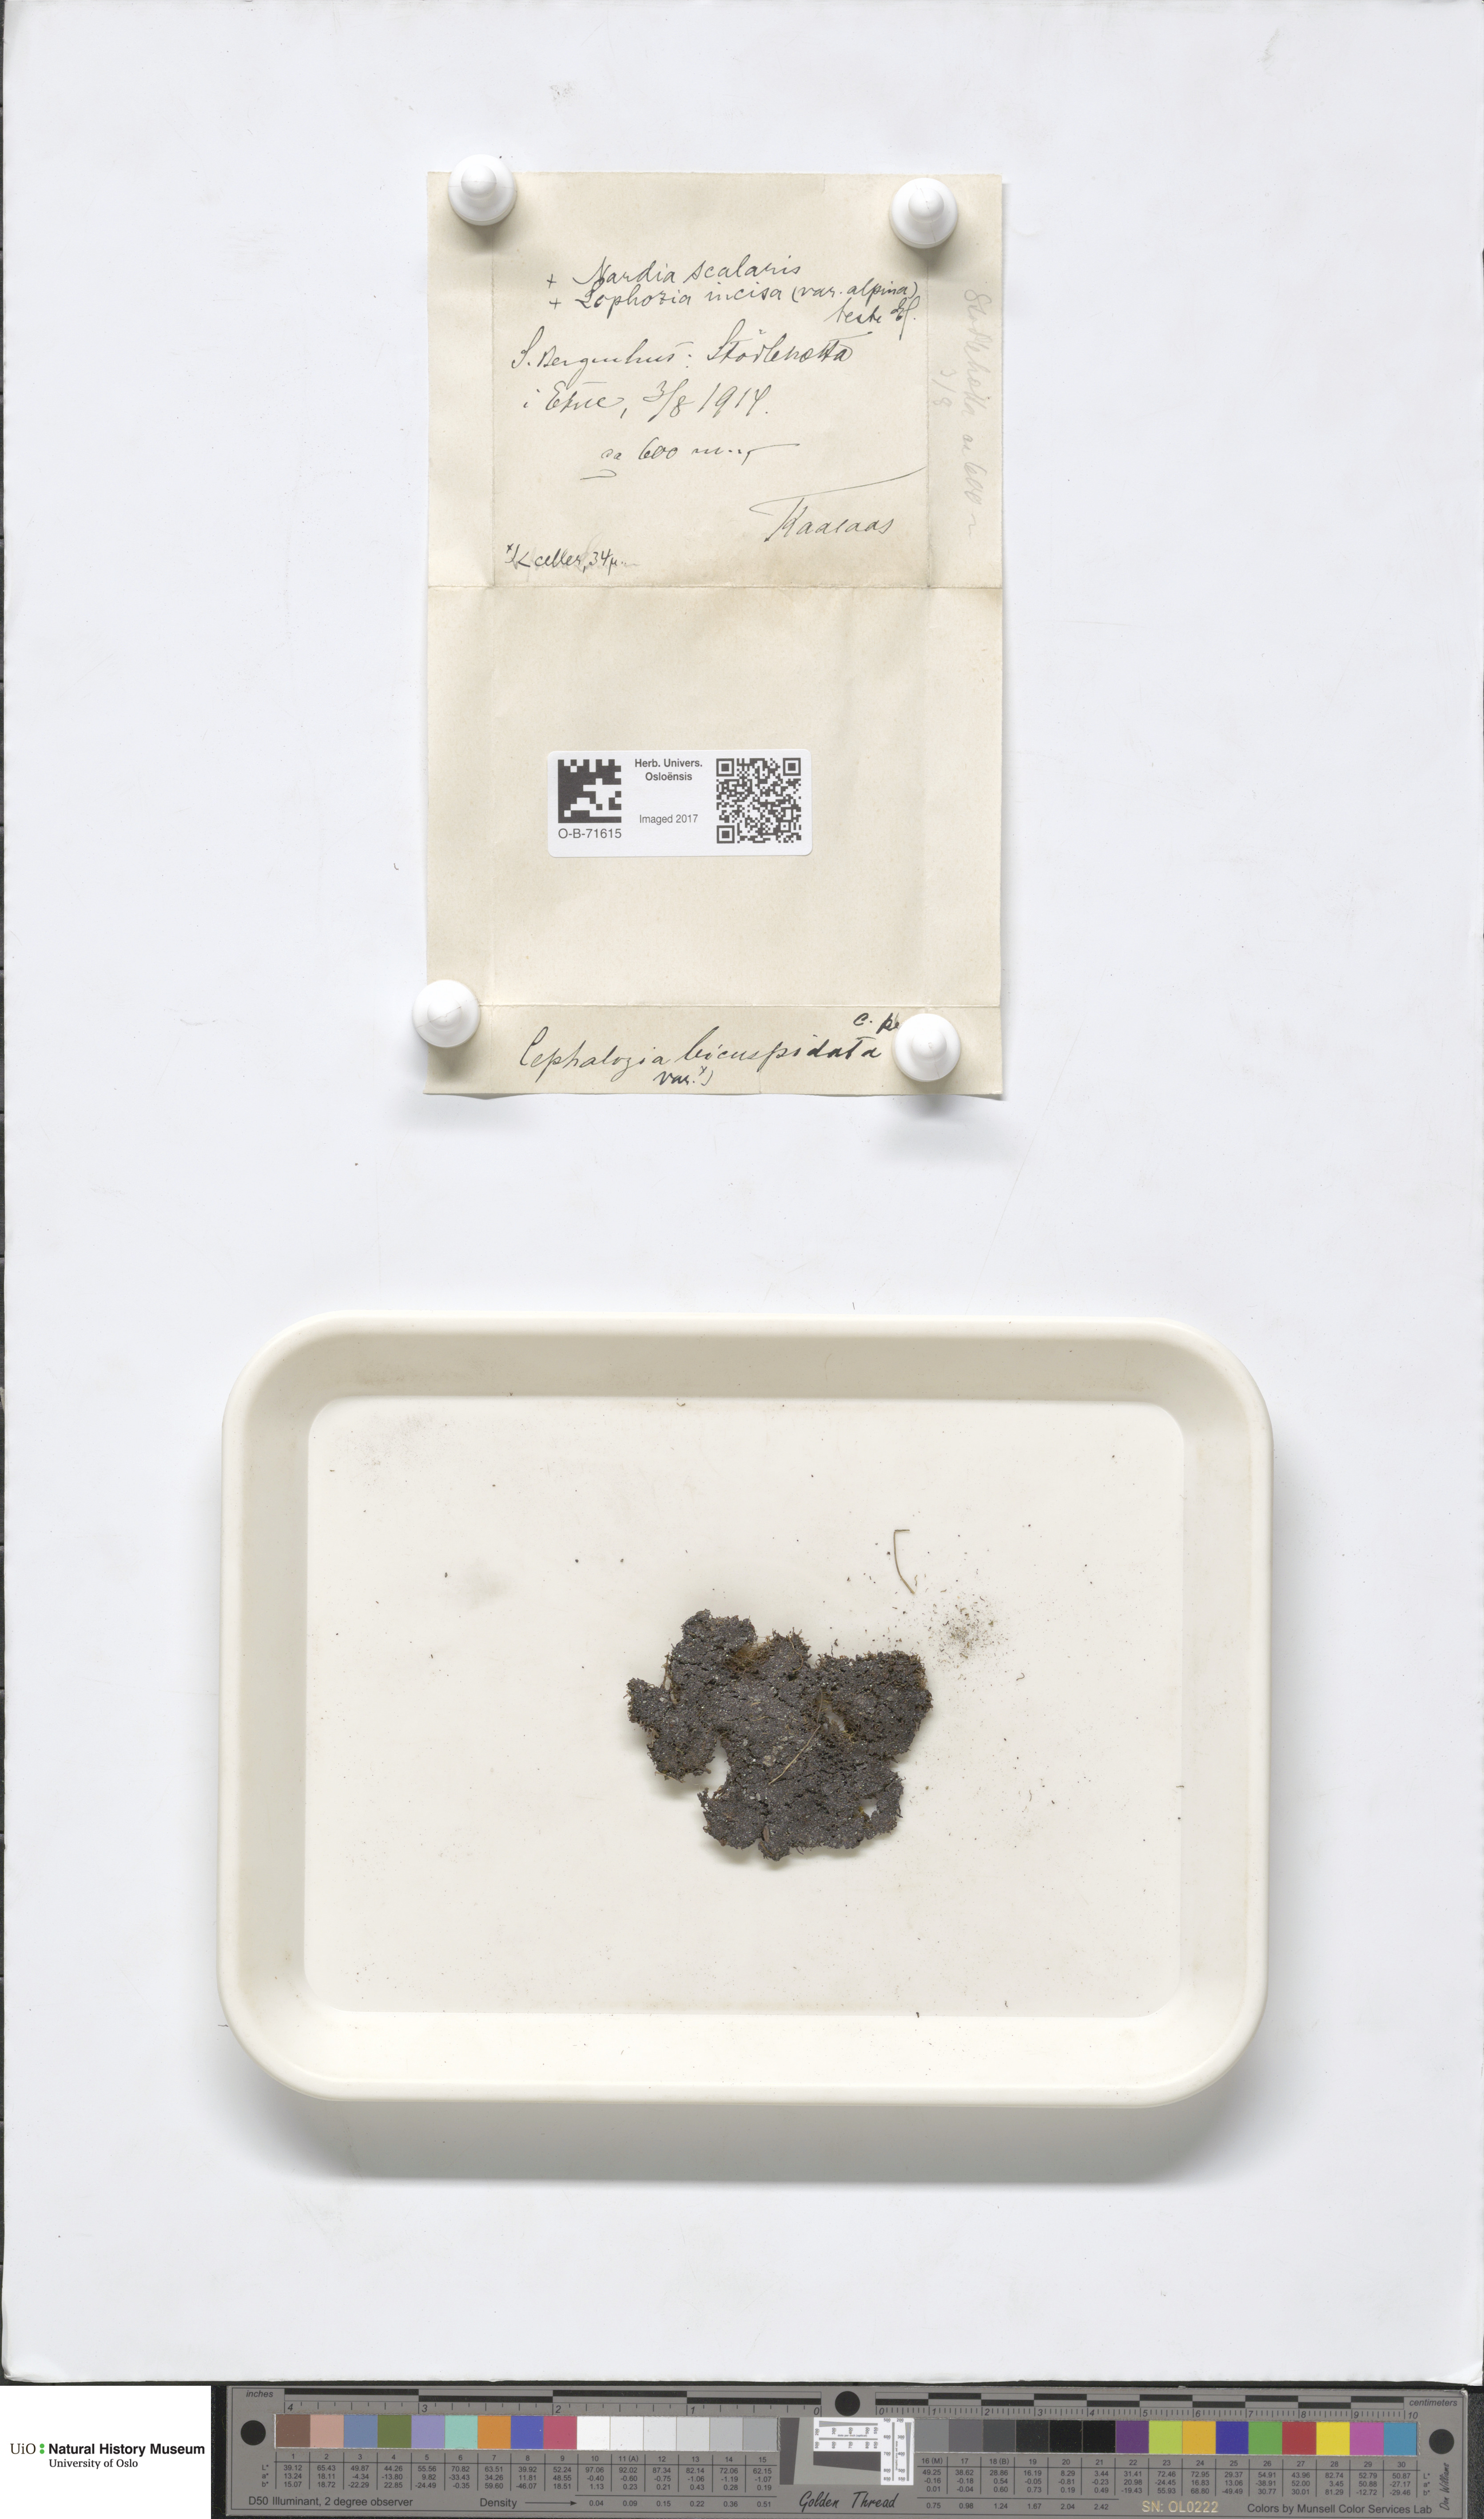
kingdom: Plantae
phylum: Marchantiophyta
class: Jungermanniopsida
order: Jungermanniales
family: Cephaloziaceae
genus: Cephalozia
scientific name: Cephalozia bicuspidata
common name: Two-horned pincerwort
